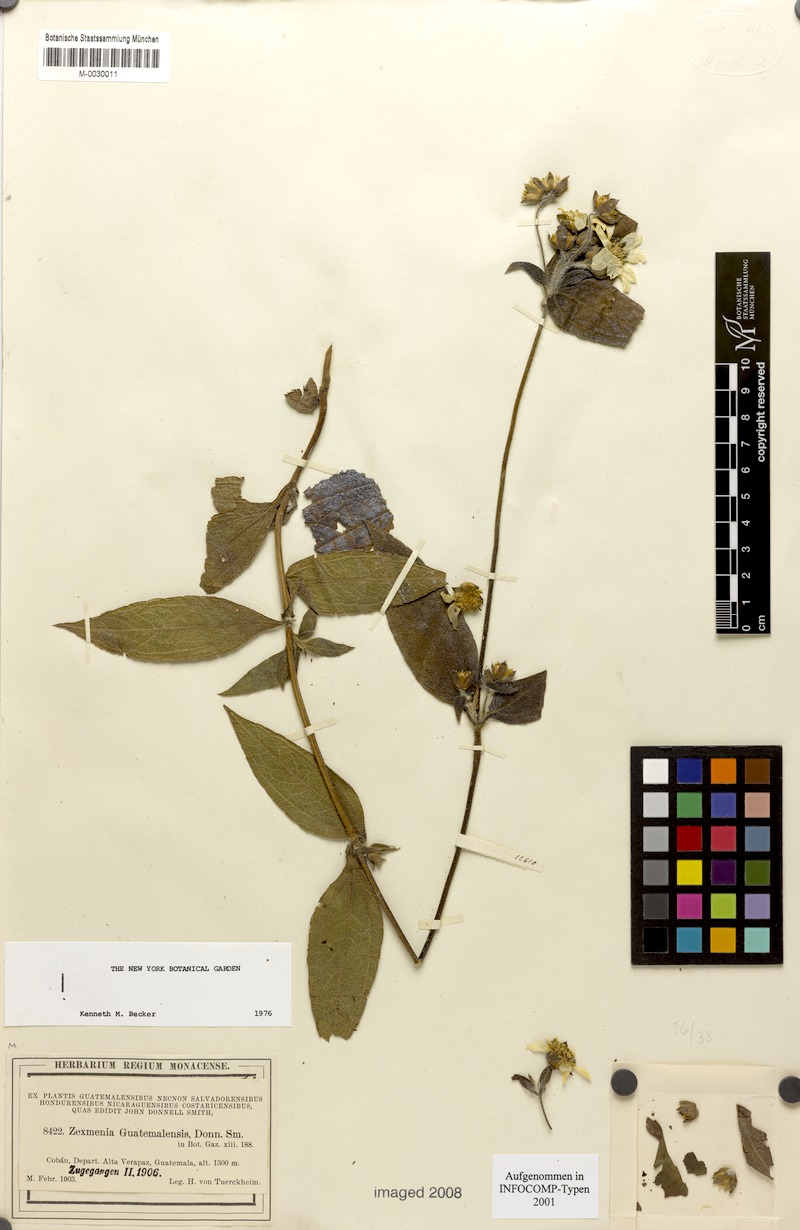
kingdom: Plantae
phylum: Tracheophyta
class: Magnoliopsida
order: Asterales
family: Asteraceae
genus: Lundellianthus
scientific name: Lundellianthus guatemalensis
